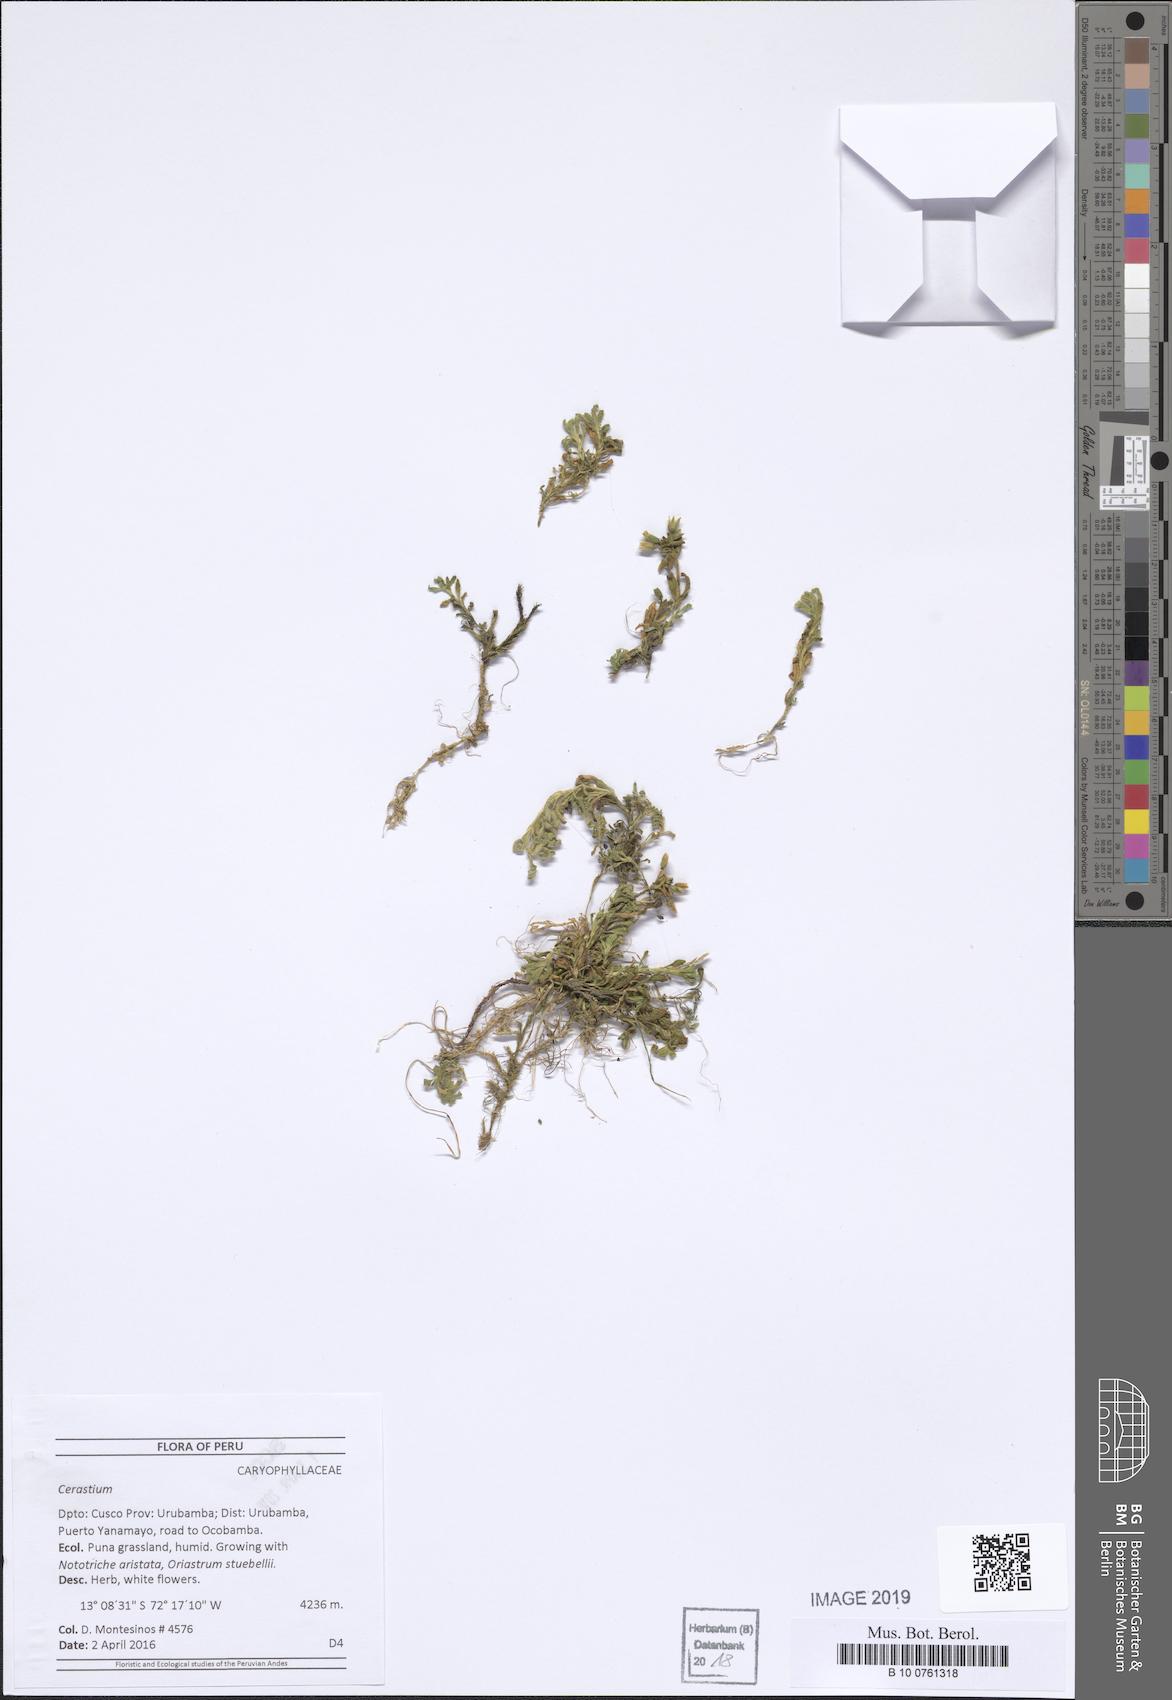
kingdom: Plantae
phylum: Tracheophyta
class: Magnoliopsida
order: Caryophyllales
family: Caryophyllaceae
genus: Cerastium
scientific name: Cerastium
